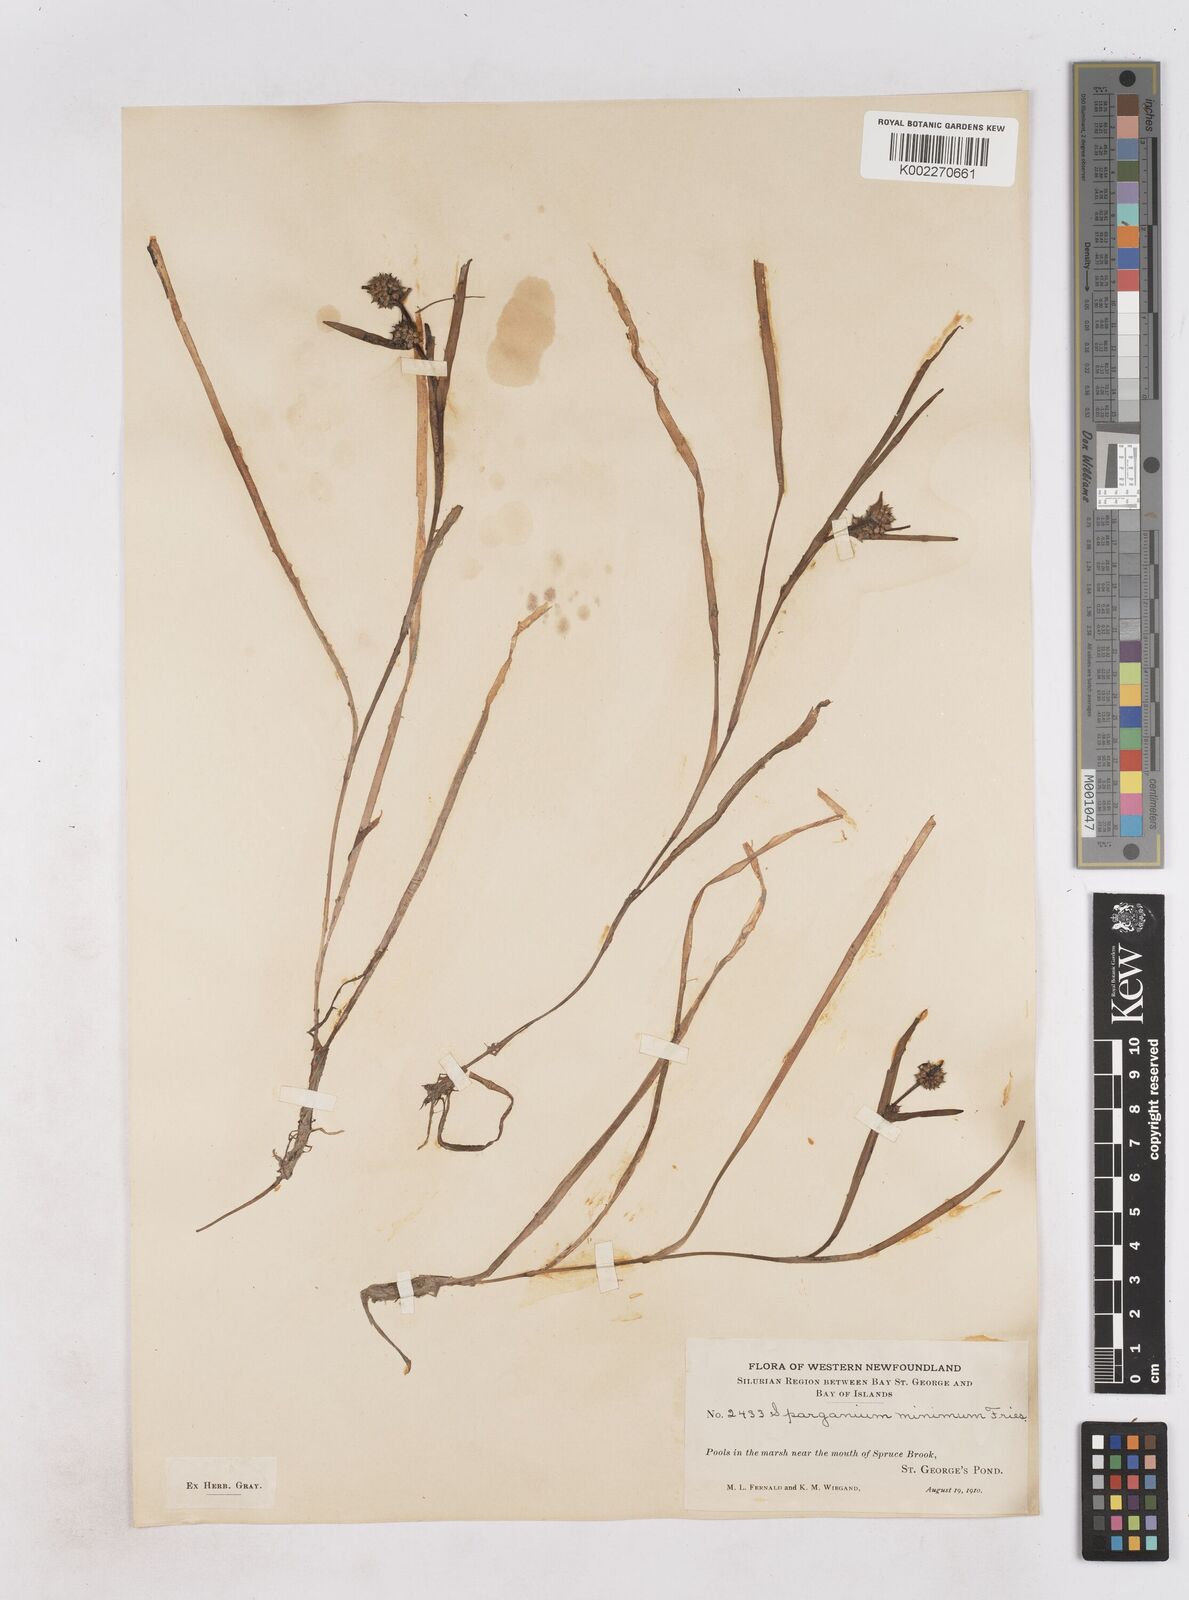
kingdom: Plantae
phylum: Tracheophyta
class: Liliopsida
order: Poales
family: Typhaceae
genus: Sparganium
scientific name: Sparganium natans
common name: Least bur-reed
